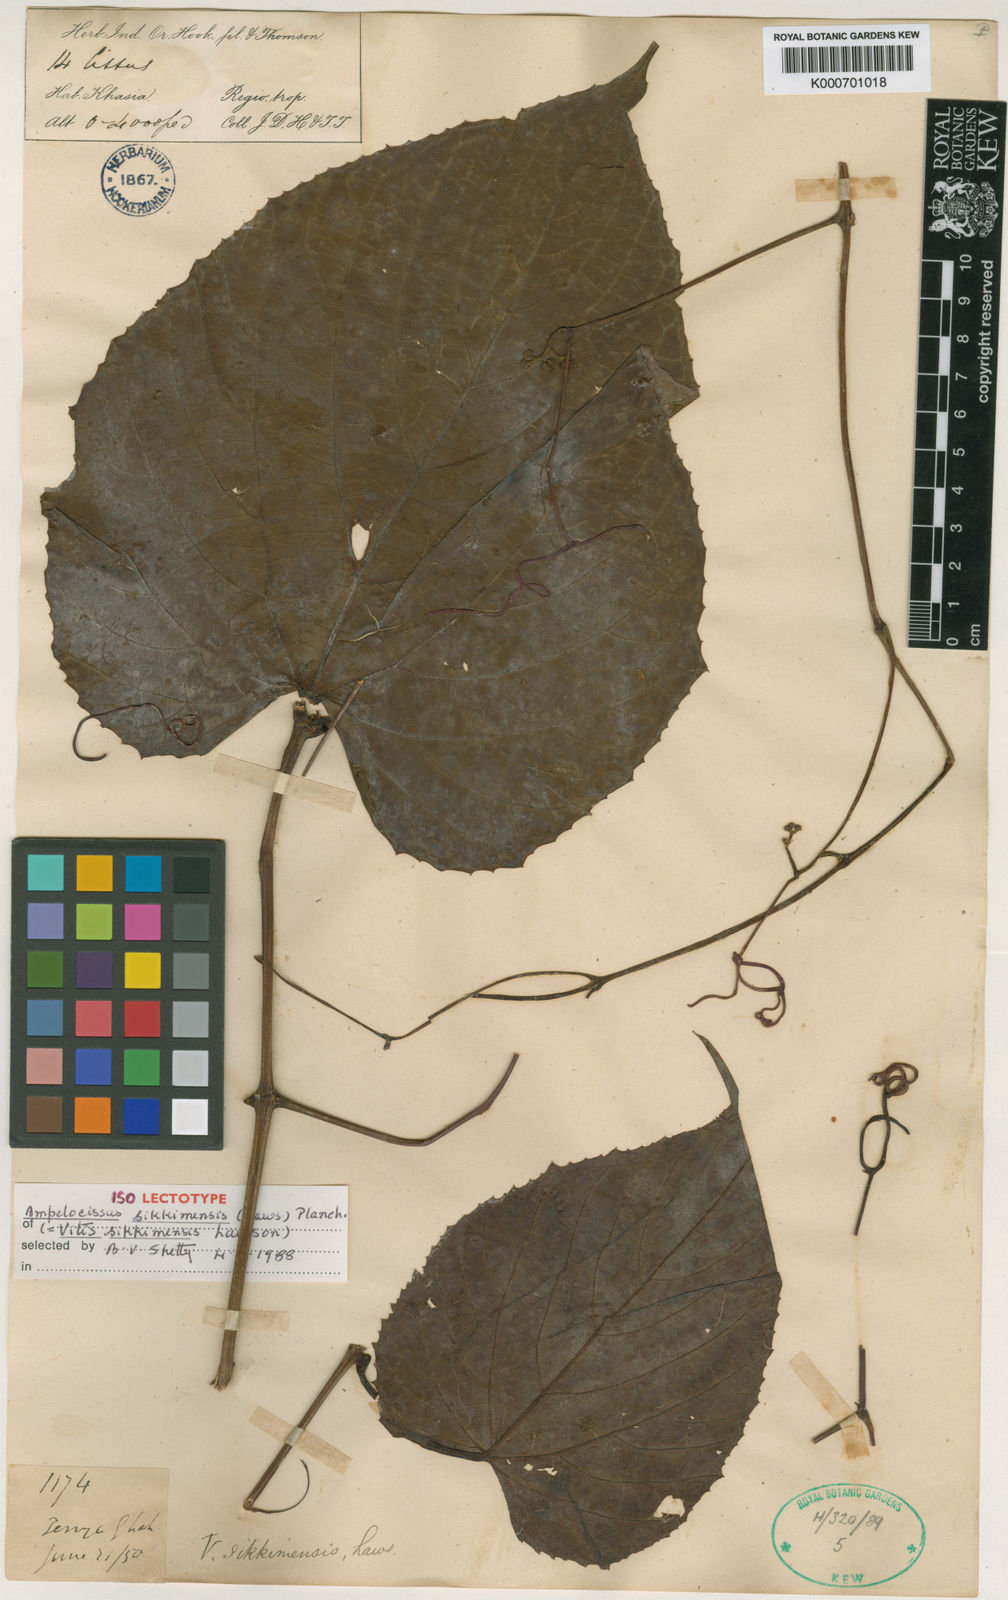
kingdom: Plantae
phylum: Tracheophyta
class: Magnoliopsida
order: Vitales
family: Vitaceae
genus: Ampelocissus
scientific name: Ampelocissus sikkimensis
